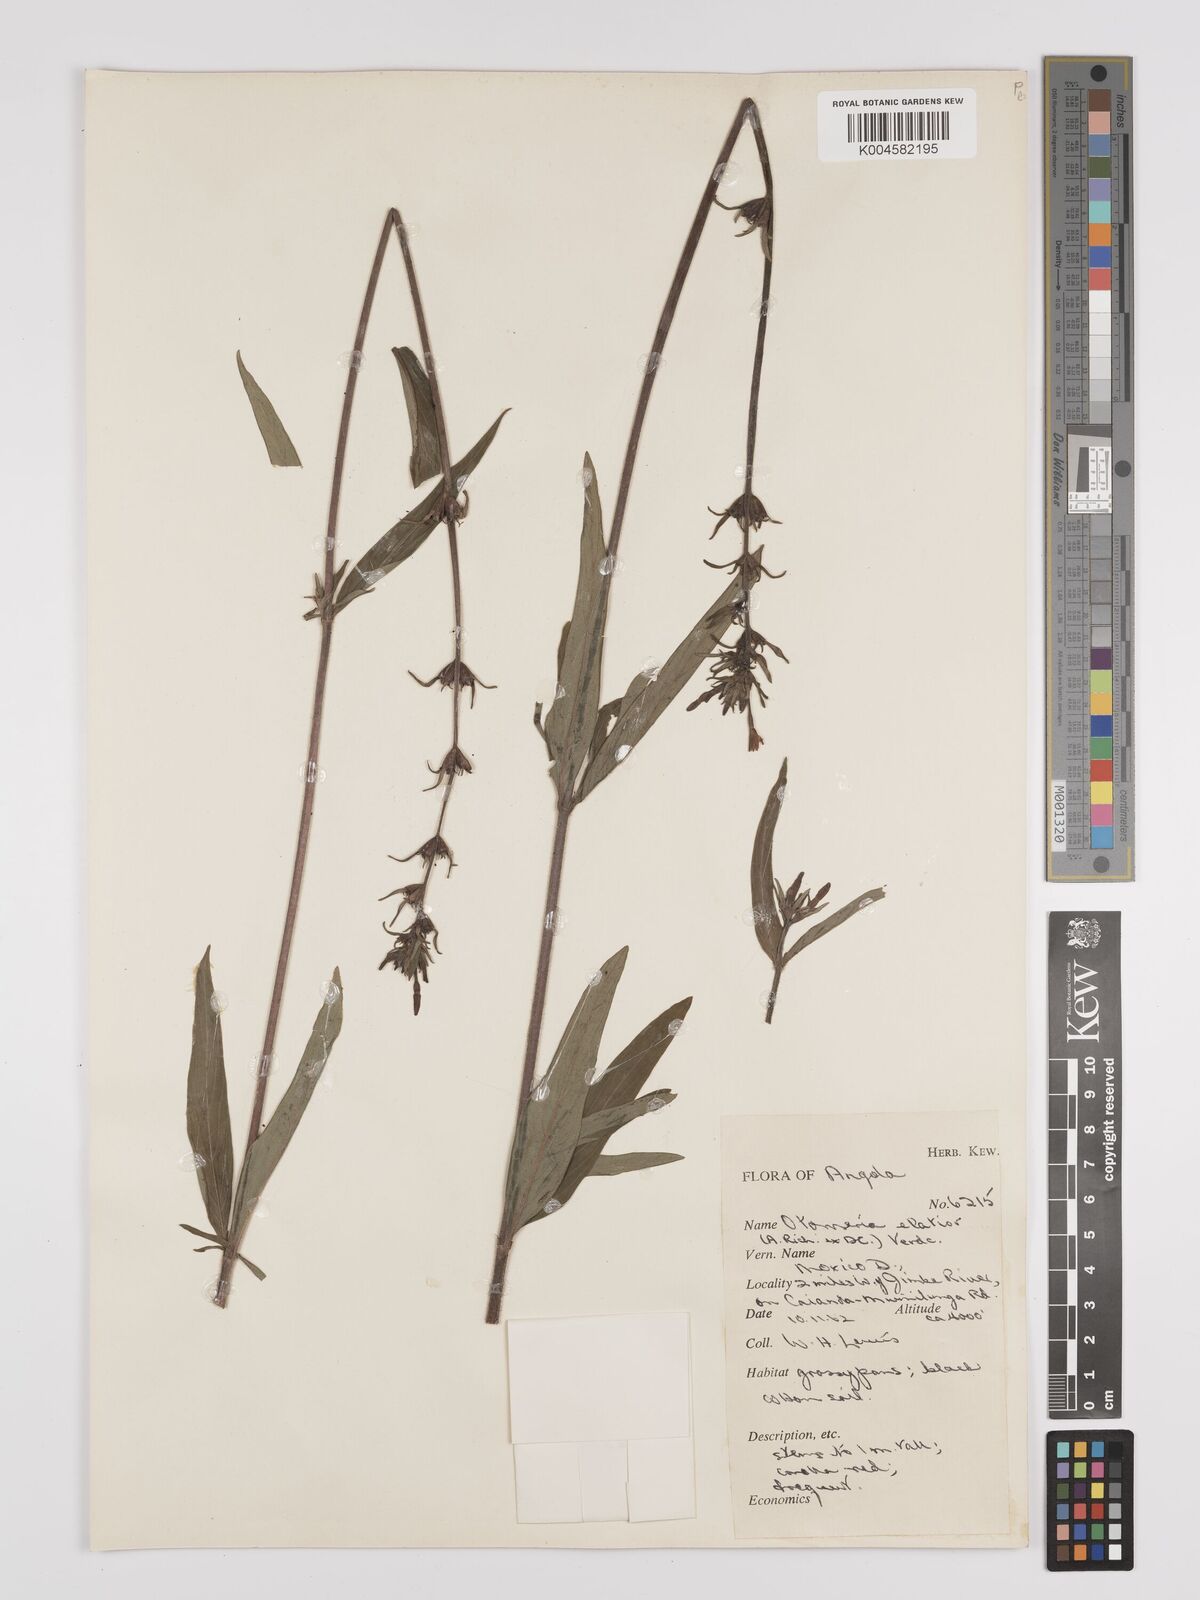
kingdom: Plantae
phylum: Tracheophyta
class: Magnoliopsida
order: Gentianales
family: Rubiaceae
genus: Otomeria
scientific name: Otomeria elatior
